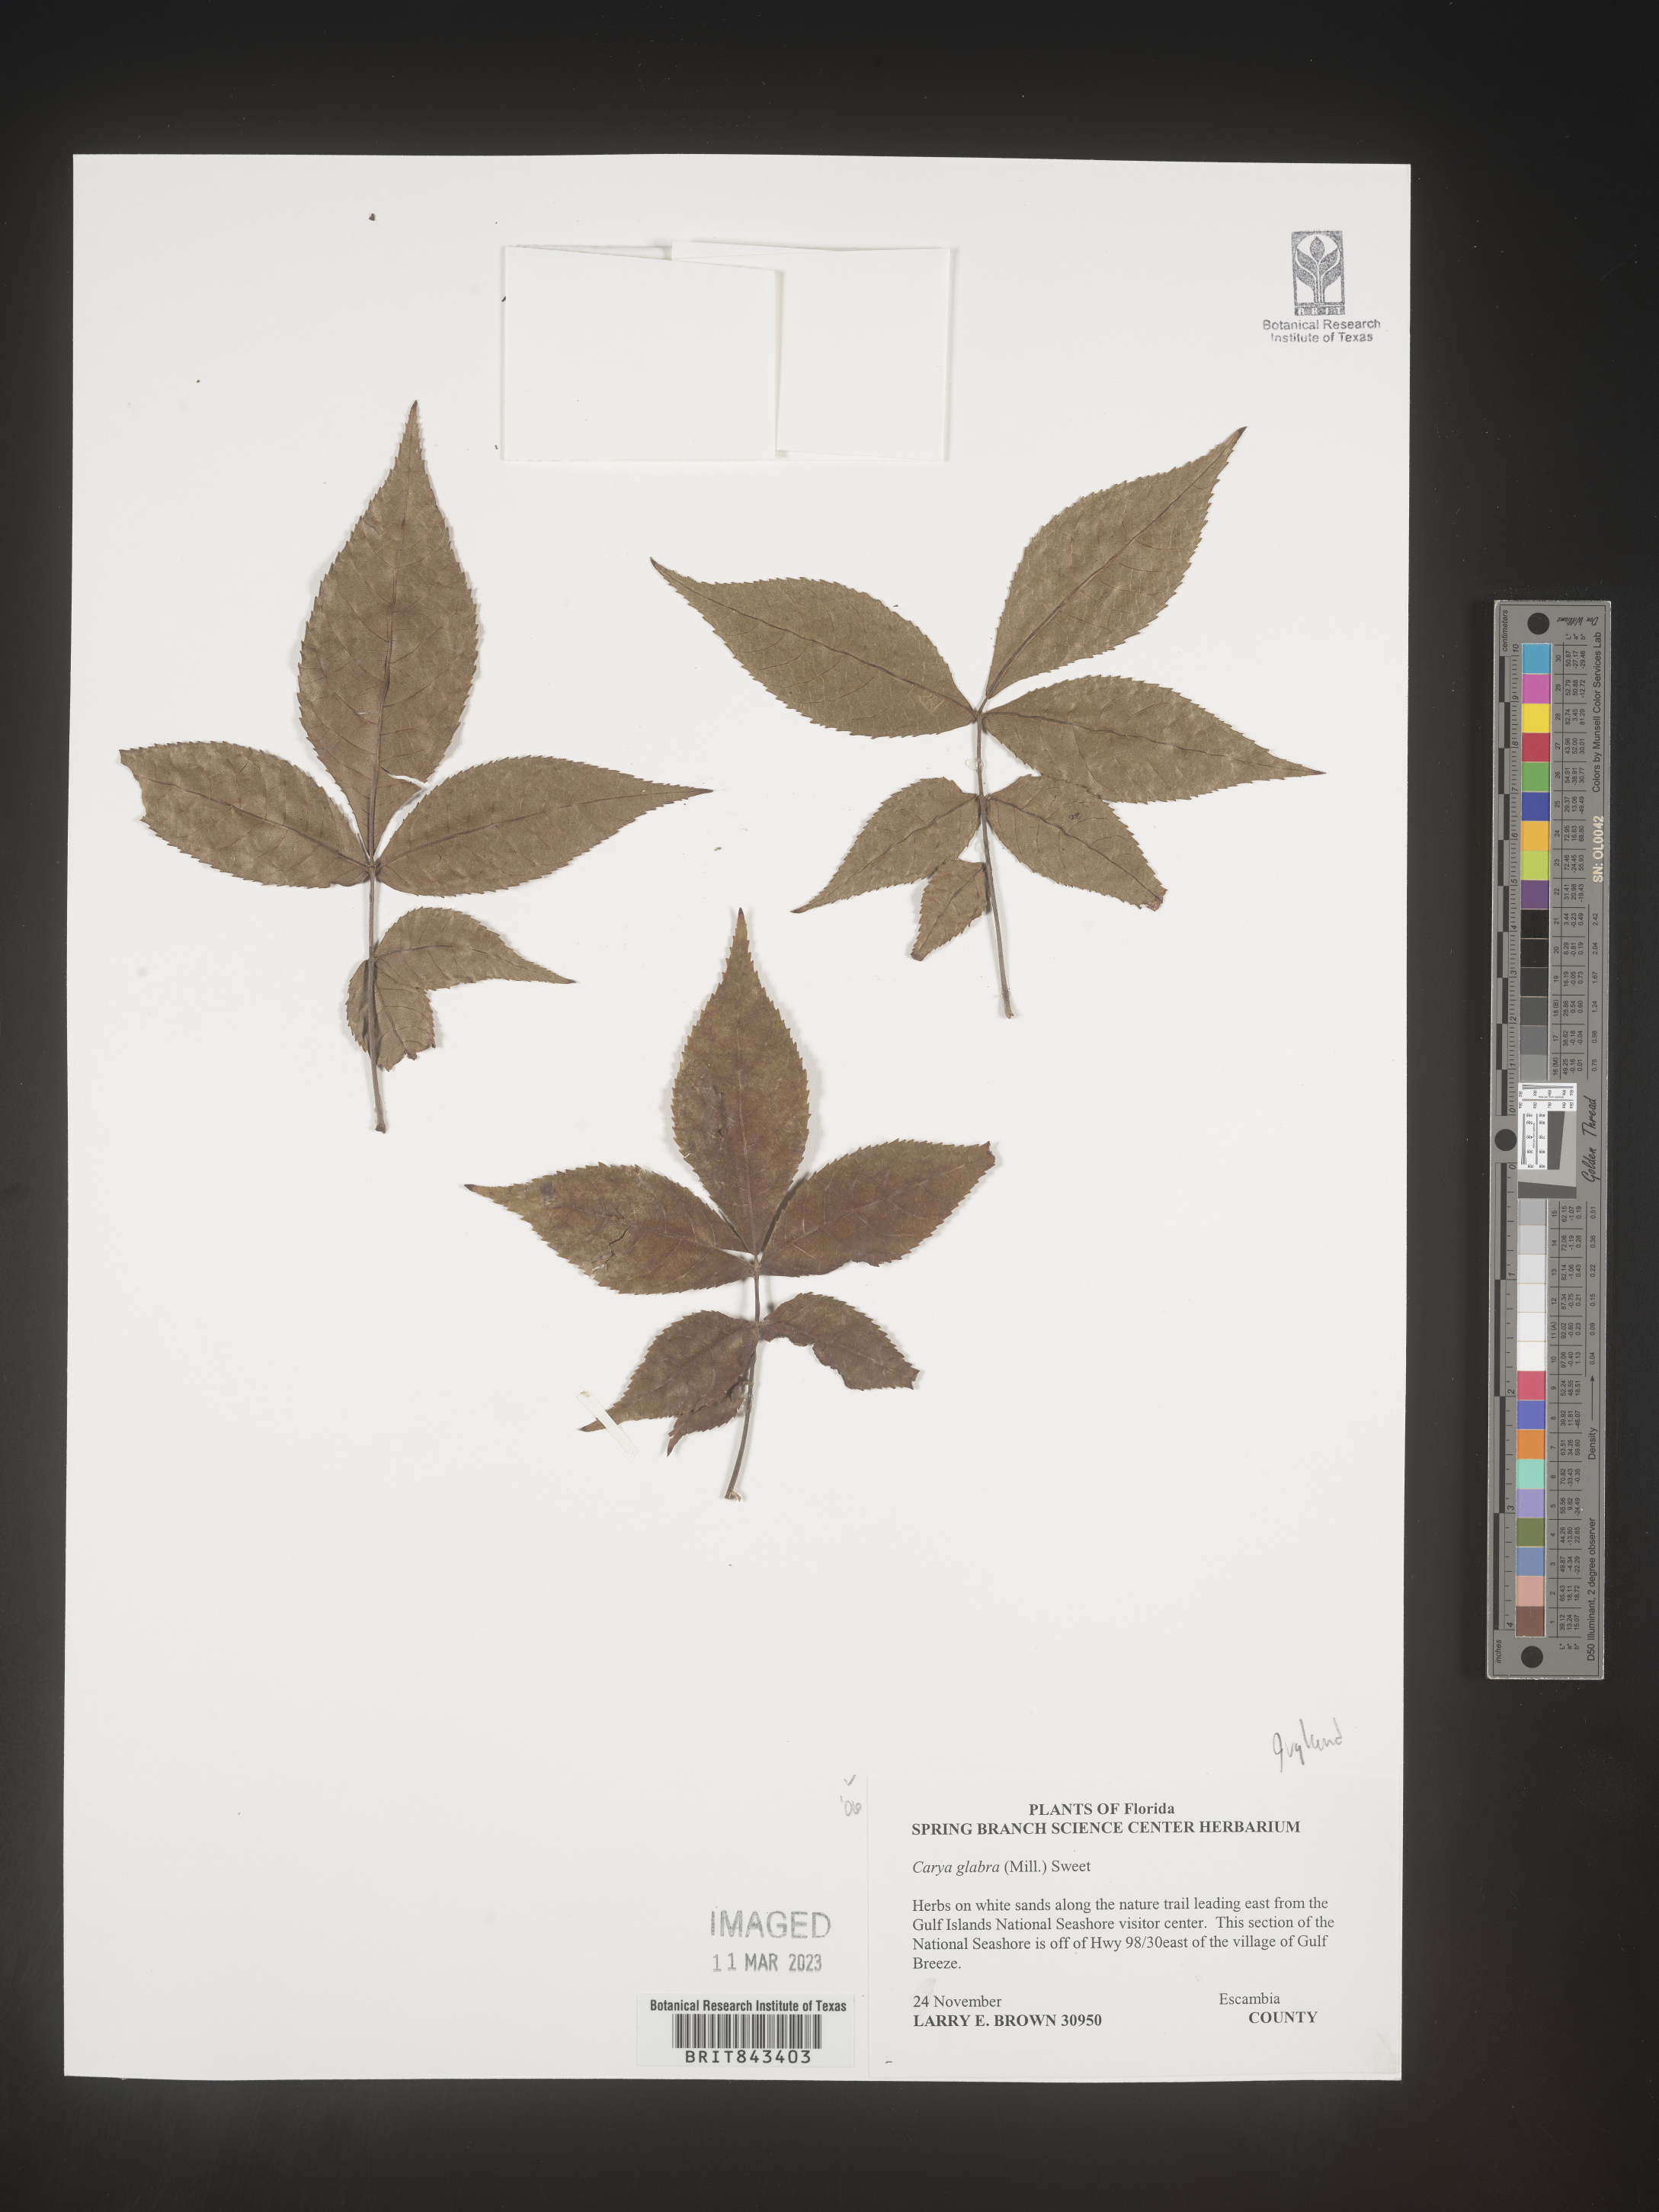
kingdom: Plantae
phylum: Tracheophyta
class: Magnoliopsida
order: Fagales
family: Juglandaceae
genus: Carya
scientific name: Carya glabra
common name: Pignut hickory
